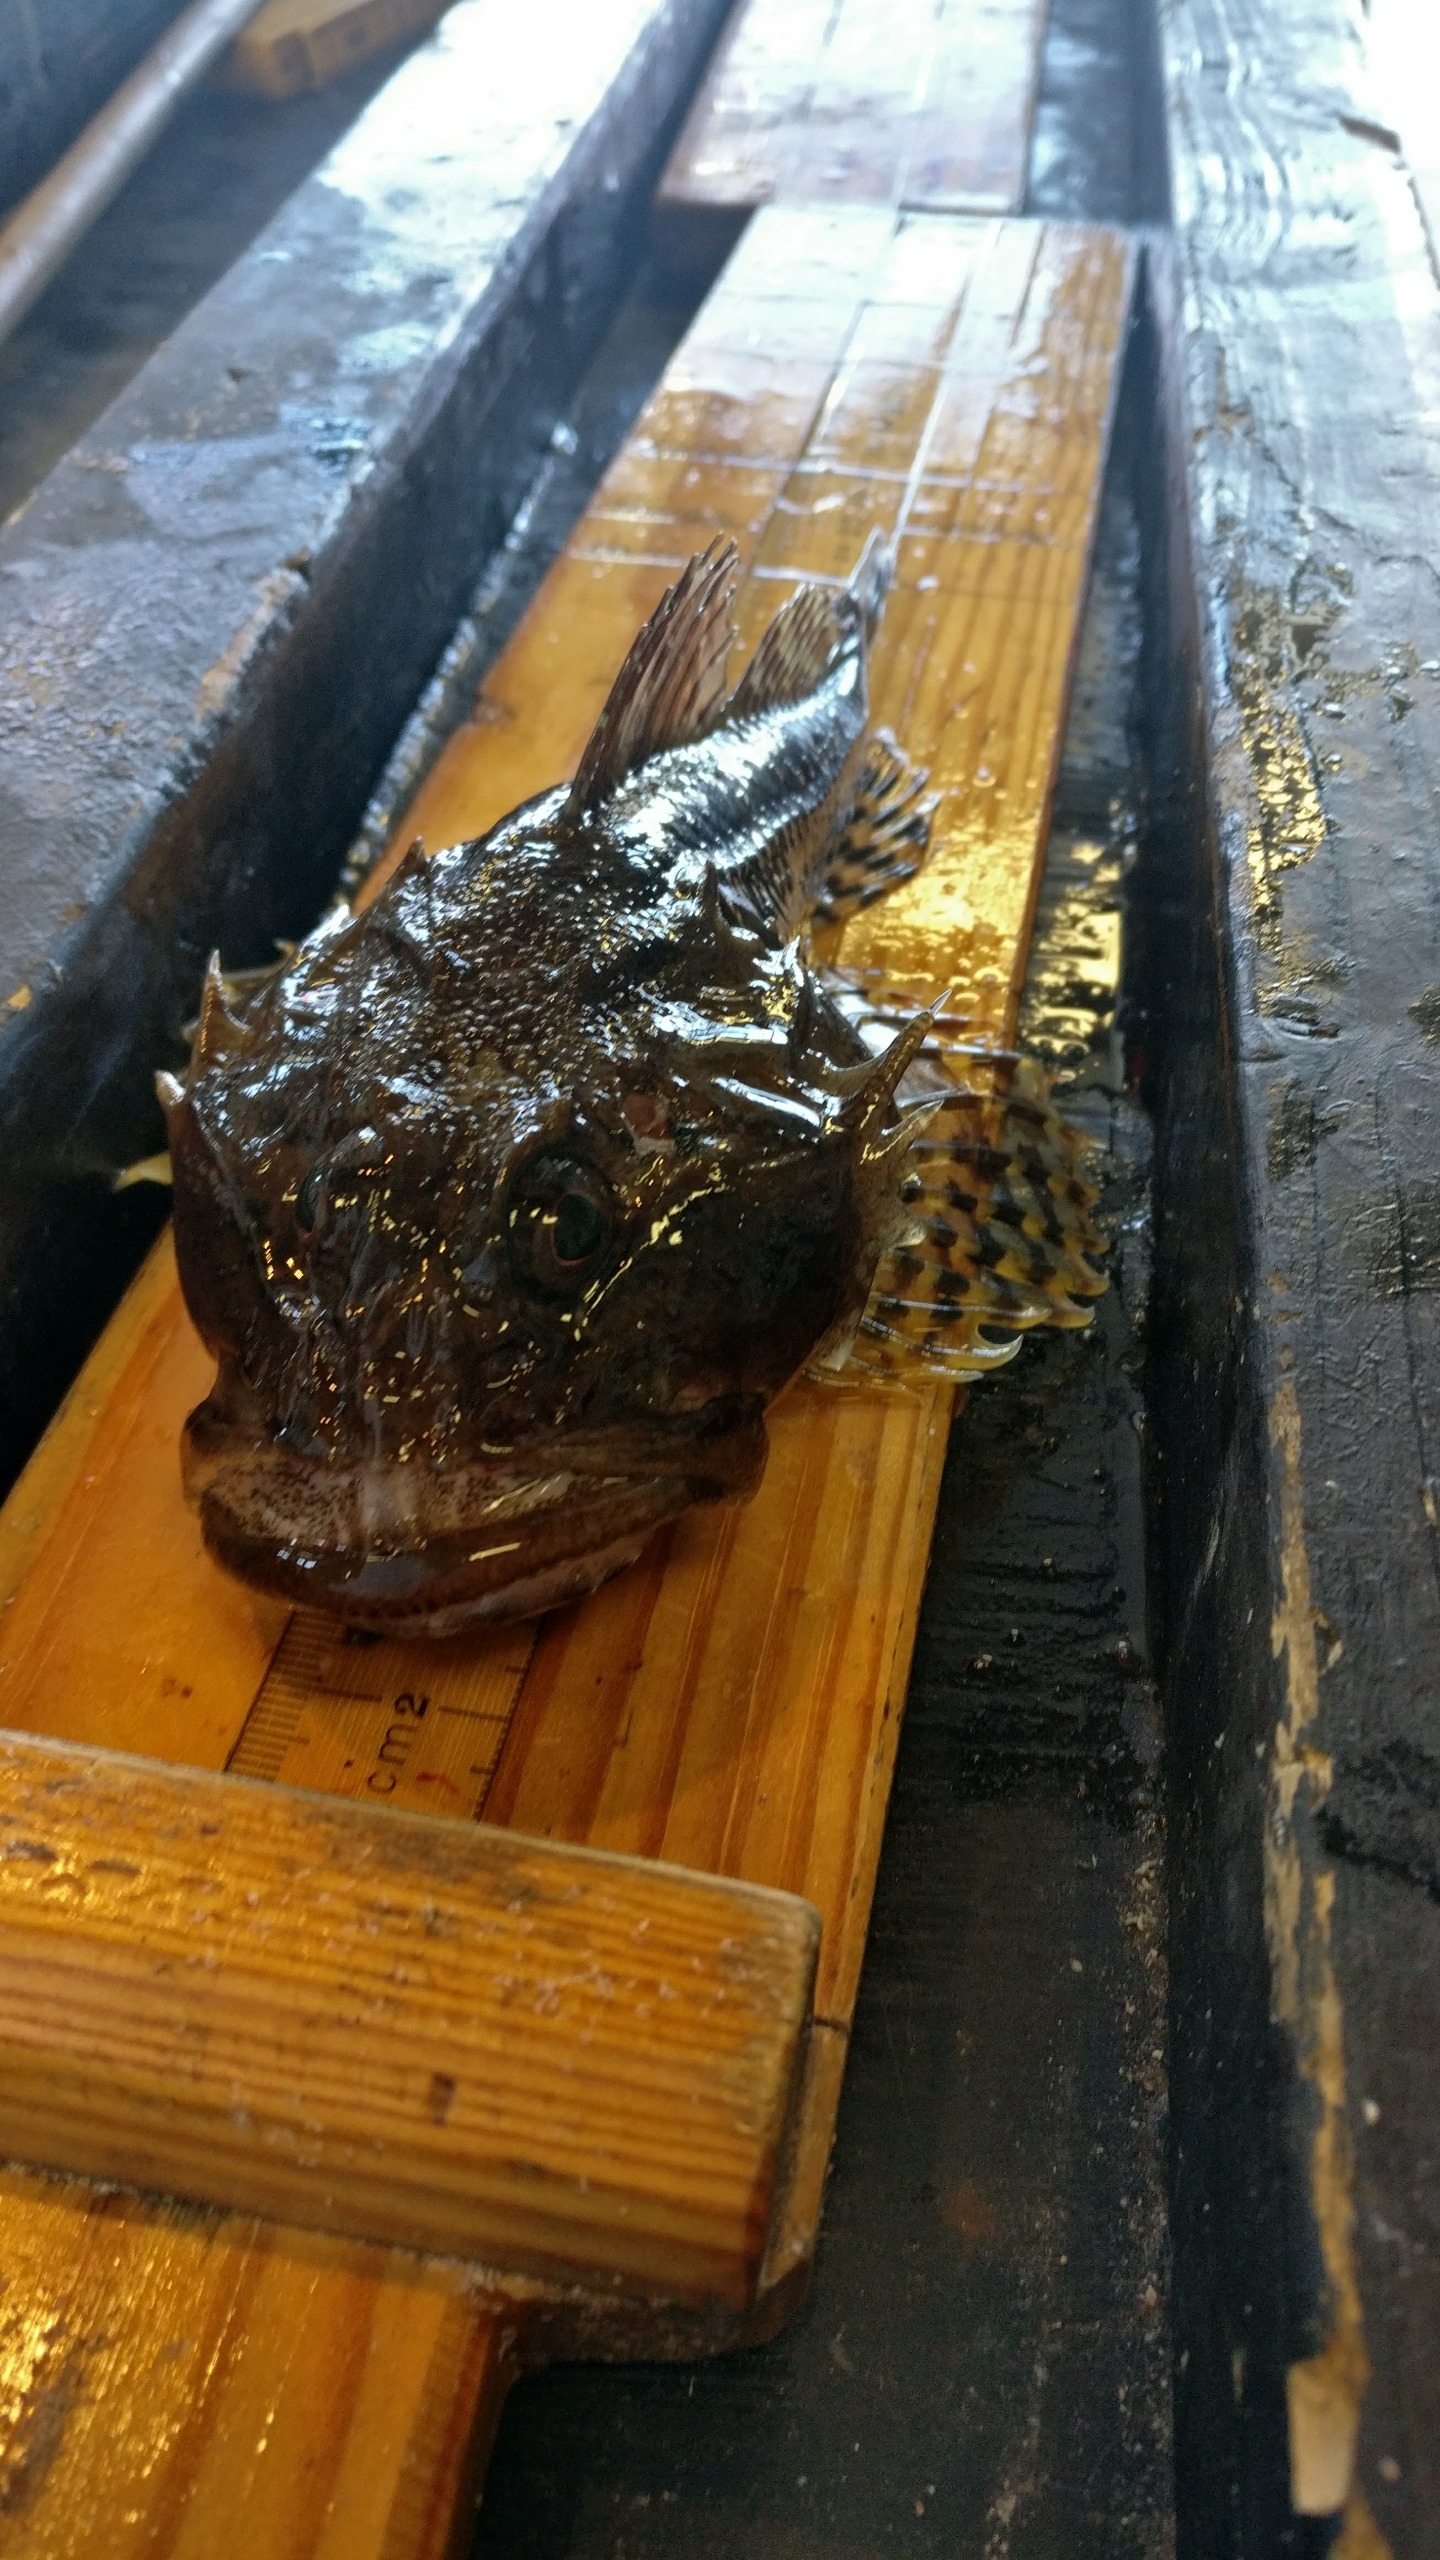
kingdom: Animalia
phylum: Chordata
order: Scorpaeniformes
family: Cottidae
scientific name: Cottidae
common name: Ulkefamilien
